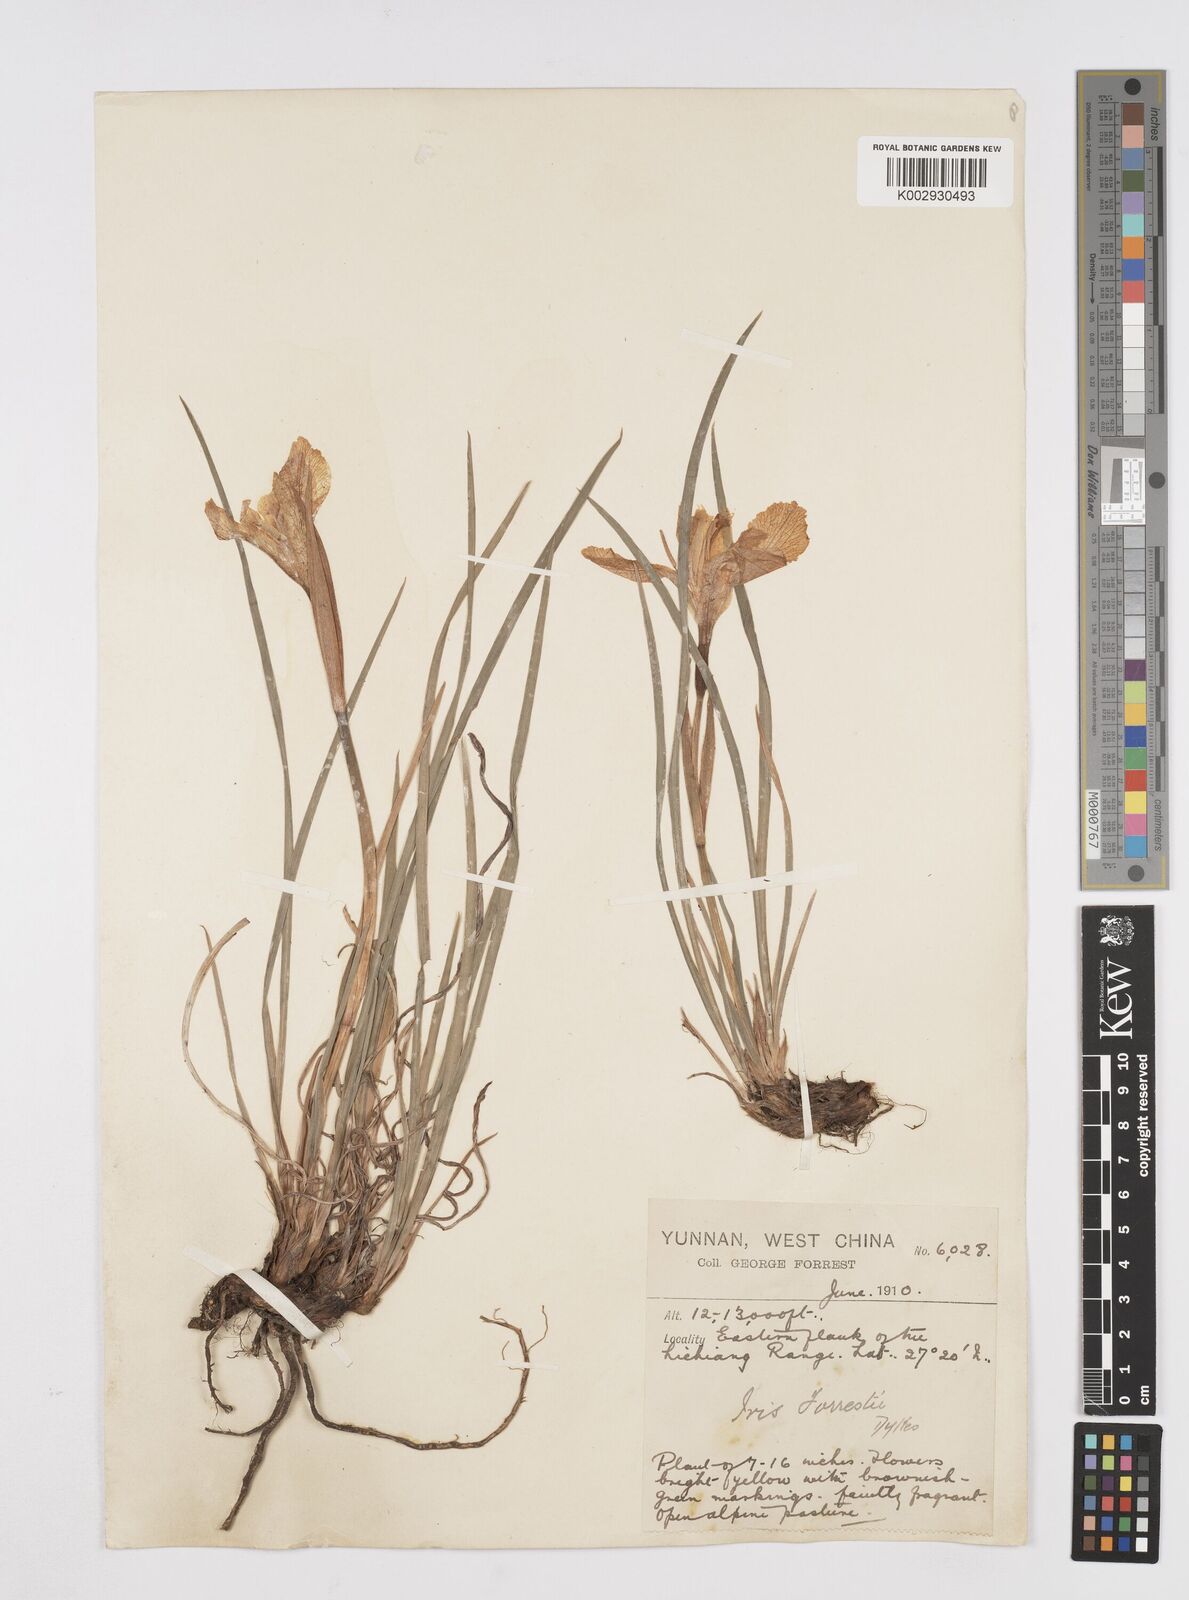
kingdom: Plantae
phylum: Tracheophyta
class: Liliopsida
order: Asparagales
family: Iridaceae
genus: Iris
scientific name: Iris forrestii
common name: Yunnan iris
